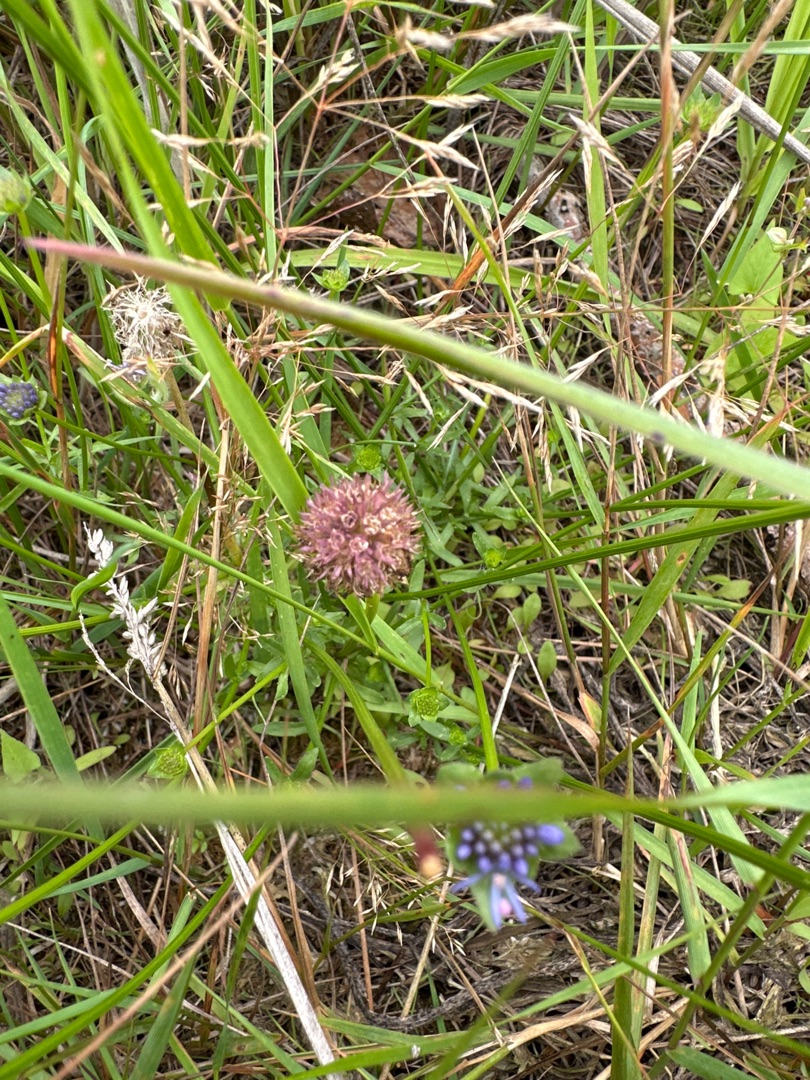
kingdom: Plantae
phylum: Tracheophyta
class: Magnoliopsida
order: Asterales
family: Campanulaceae
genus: Jasione
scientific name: Jasione montana
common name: Blåmunke
